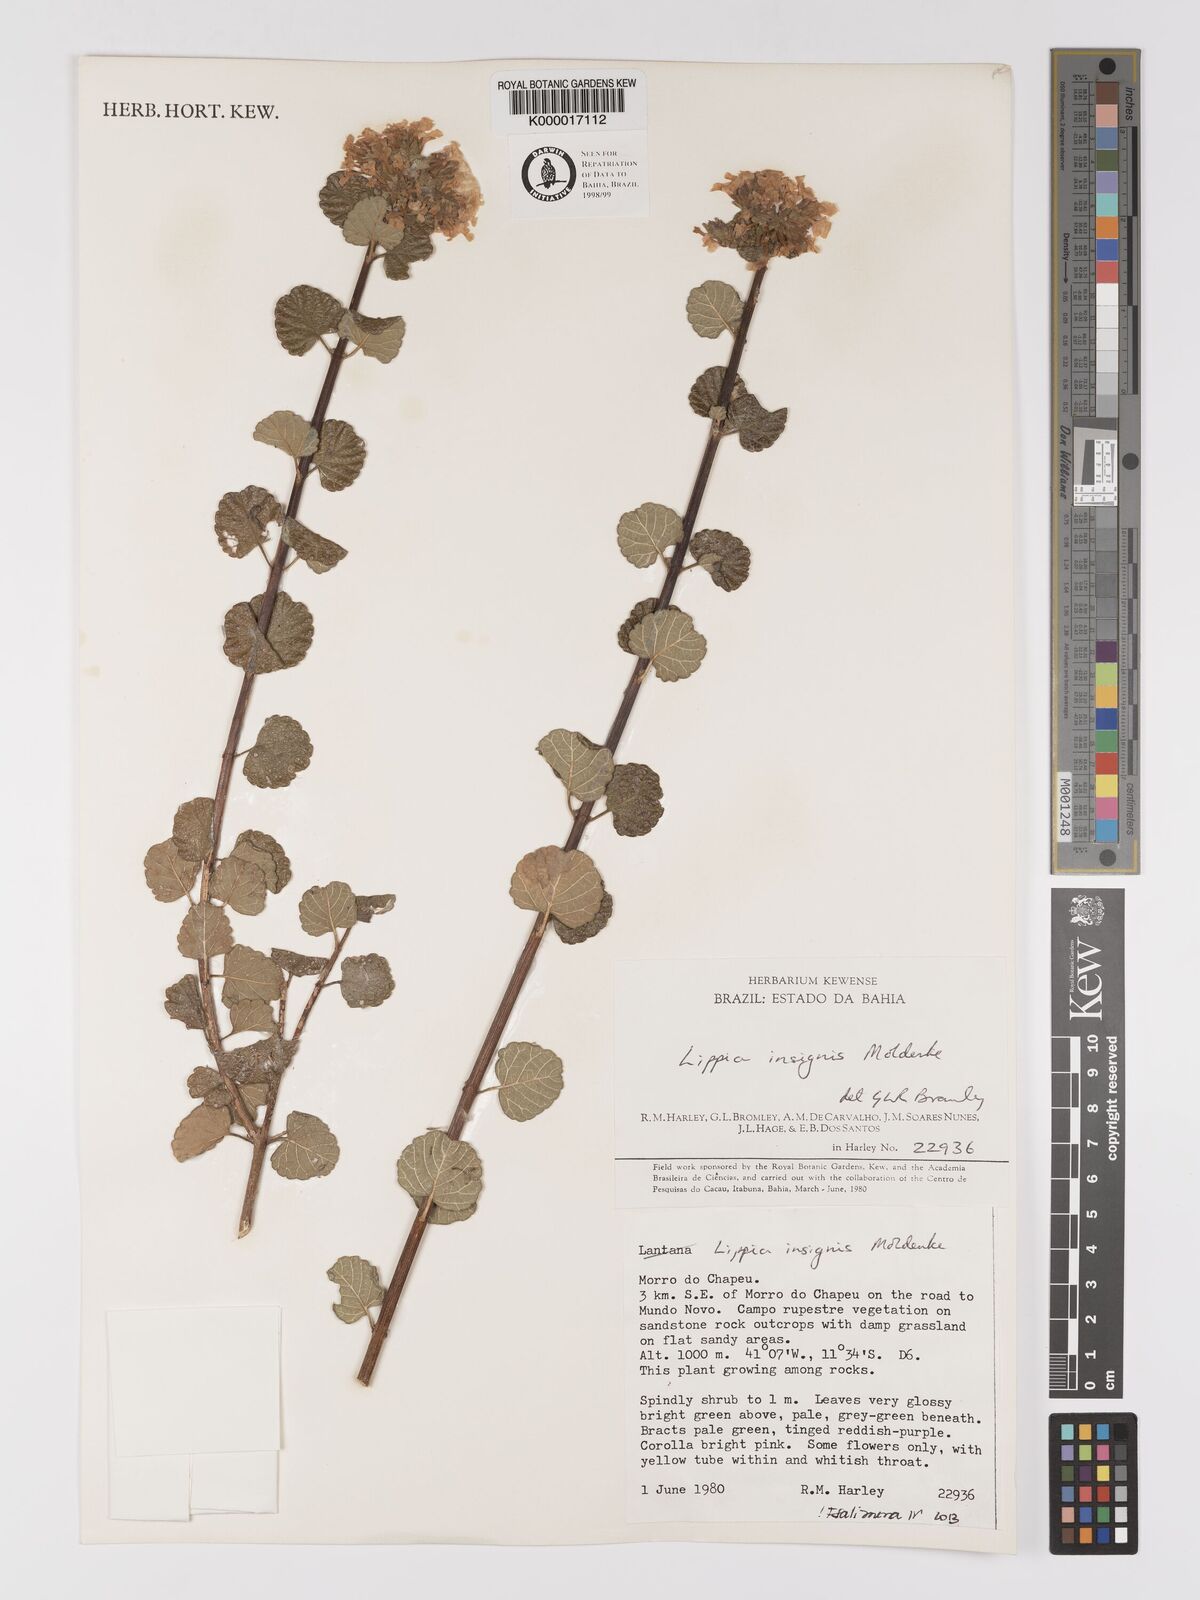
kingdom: Plantae
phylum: Tracheophyta
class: Magnoliopsida
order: Lamiales
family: Verbenaceae
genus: Lippia
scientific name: Lippia insignis
